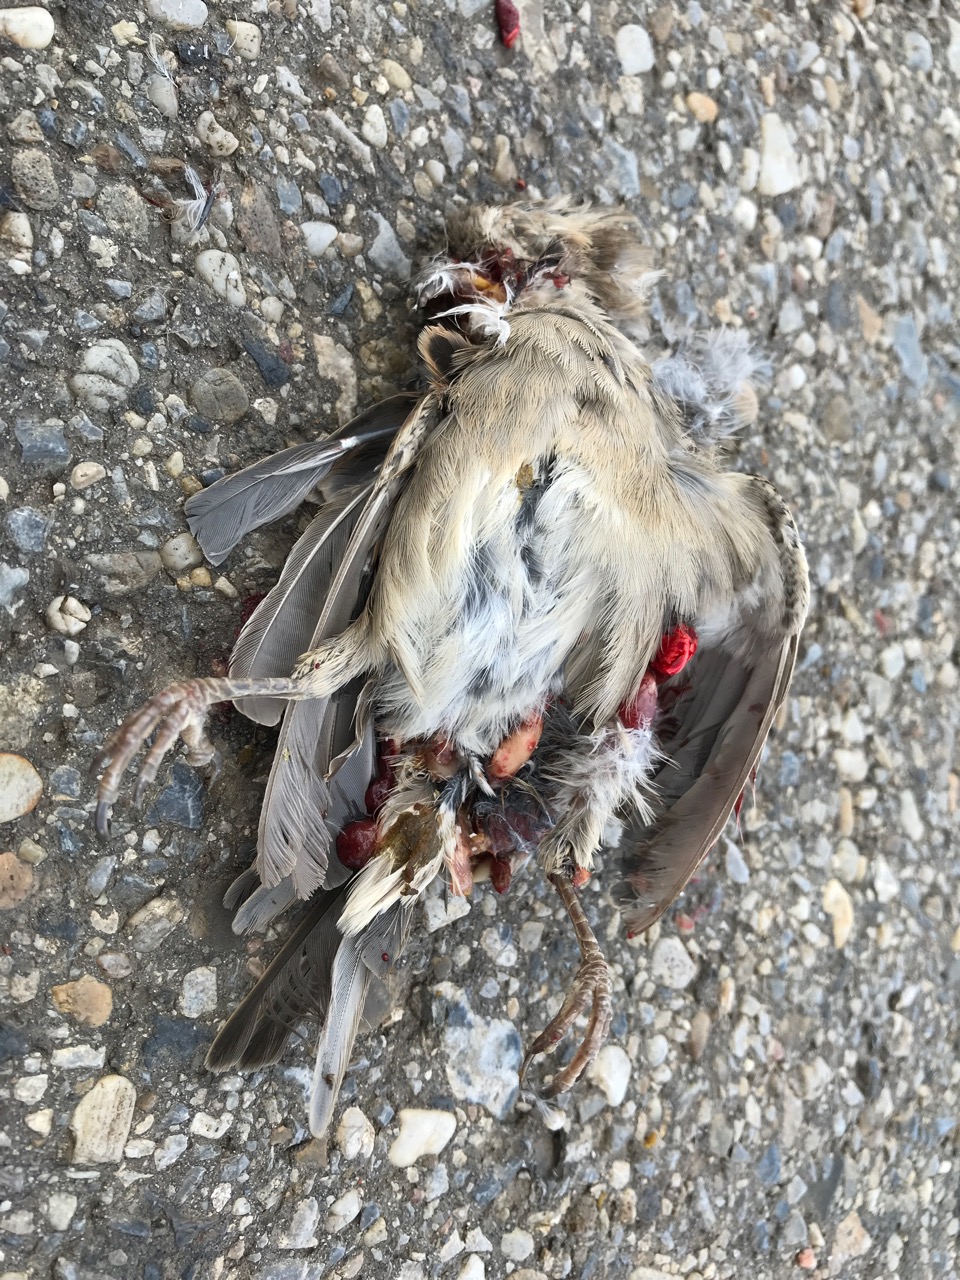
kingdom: Animalia
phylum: Chordata
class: Aves
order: Passeriformes
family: Passeridae
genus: Passer
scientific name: Passer domesticus
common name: House sparrow
